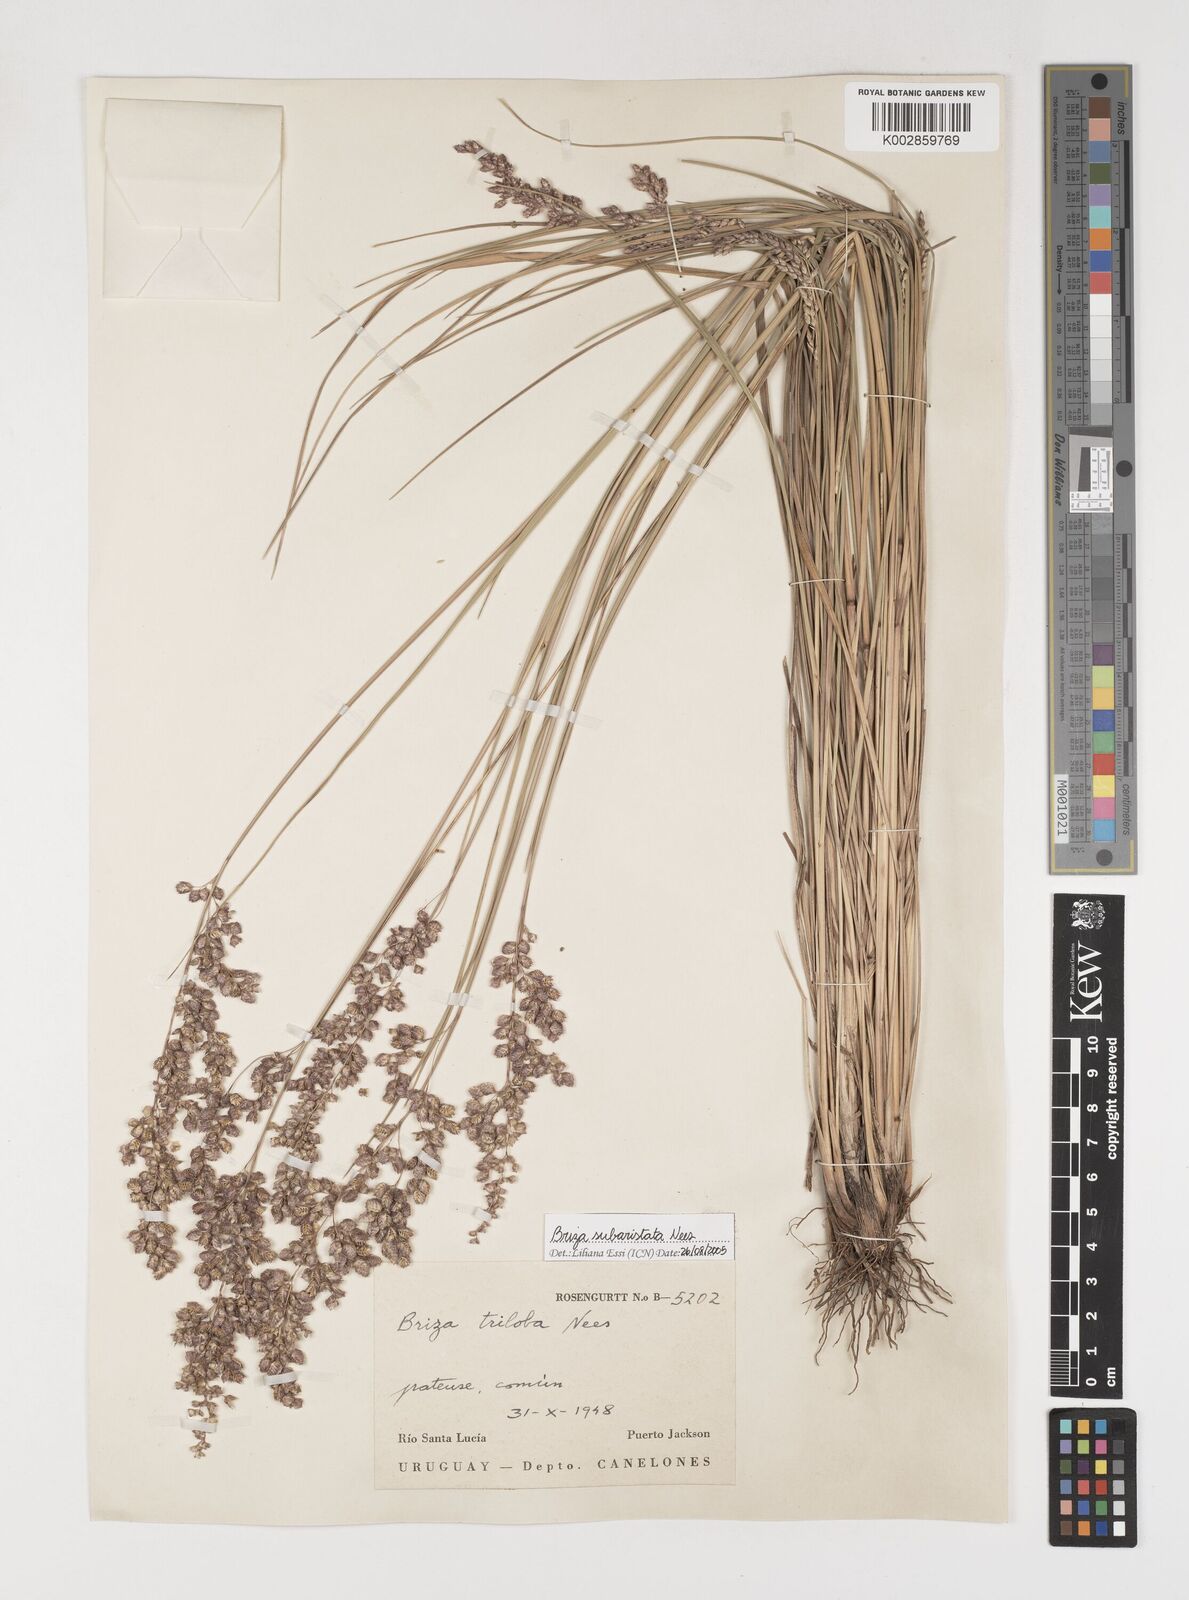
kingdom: Plantae
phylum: Tracheophyta
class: Liliopsida
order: Poales
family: Poaceae
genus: Chascolytrum
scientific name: Chascolytrum subaristatum
